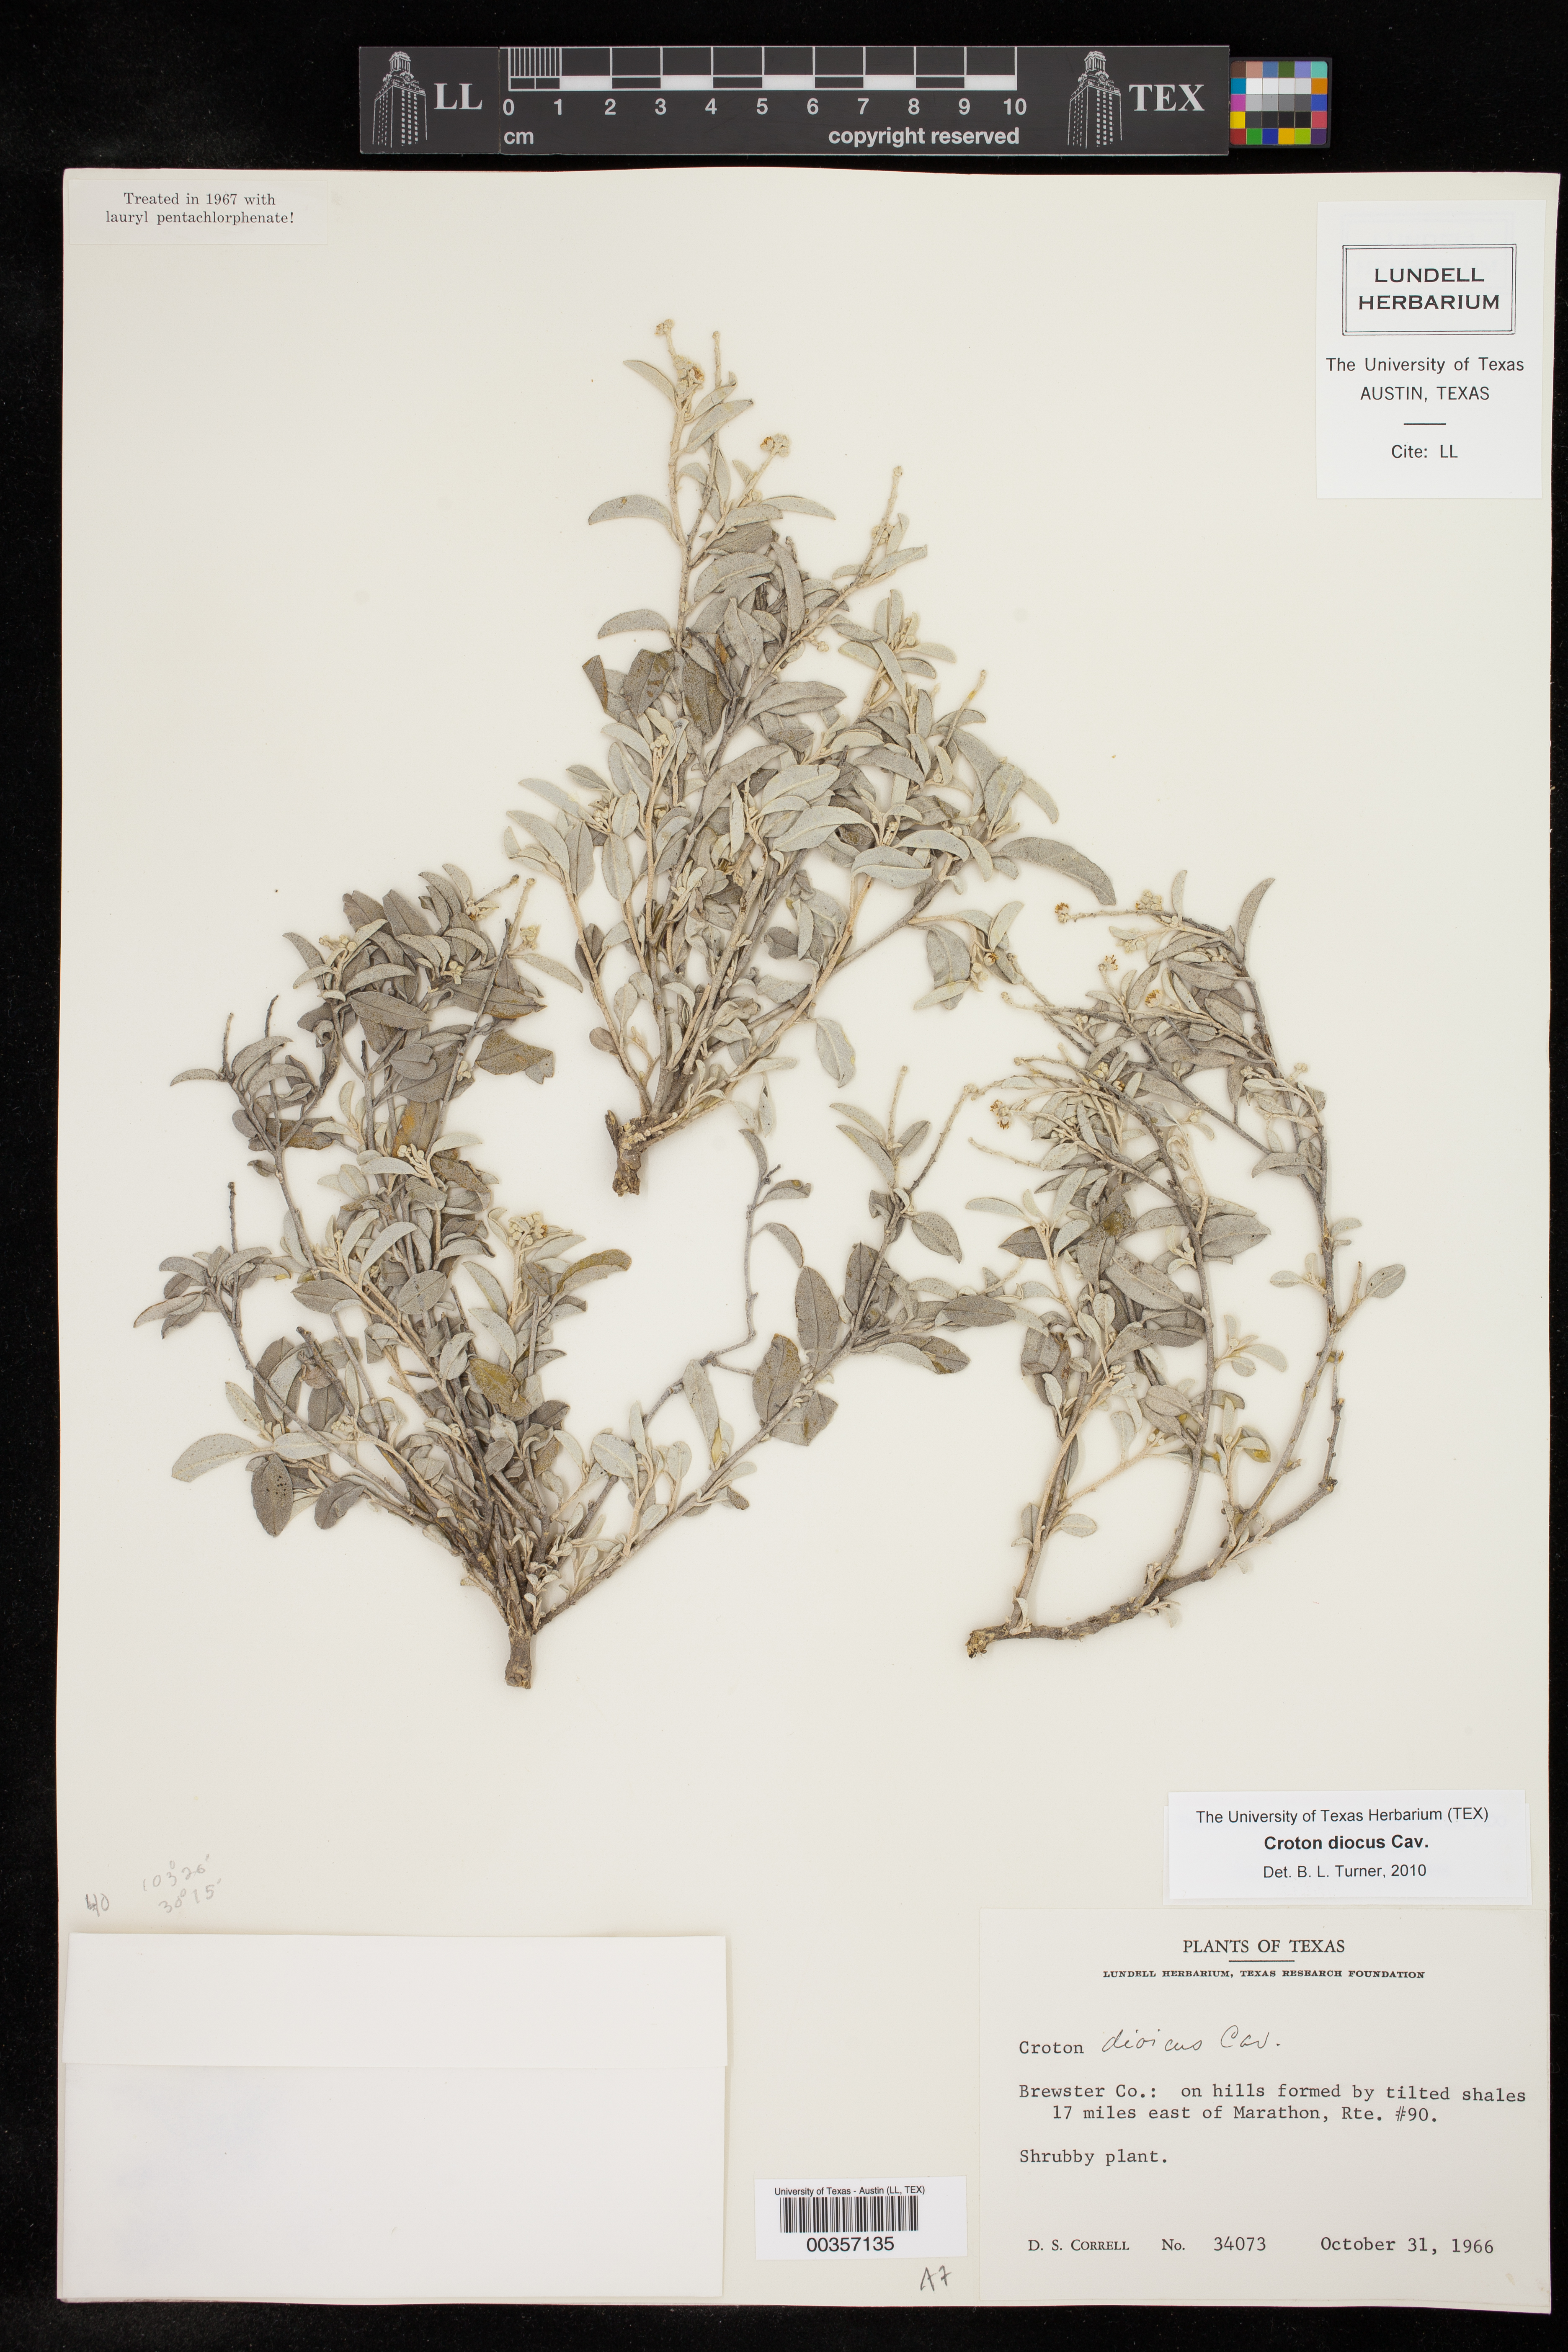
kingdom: Plantae
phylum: Tracheophyta
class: Magnoliopsida
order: Malpighiales
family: Euphorbiaceae
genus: Croton
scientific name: Croton dioicus
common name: Grassland croton
